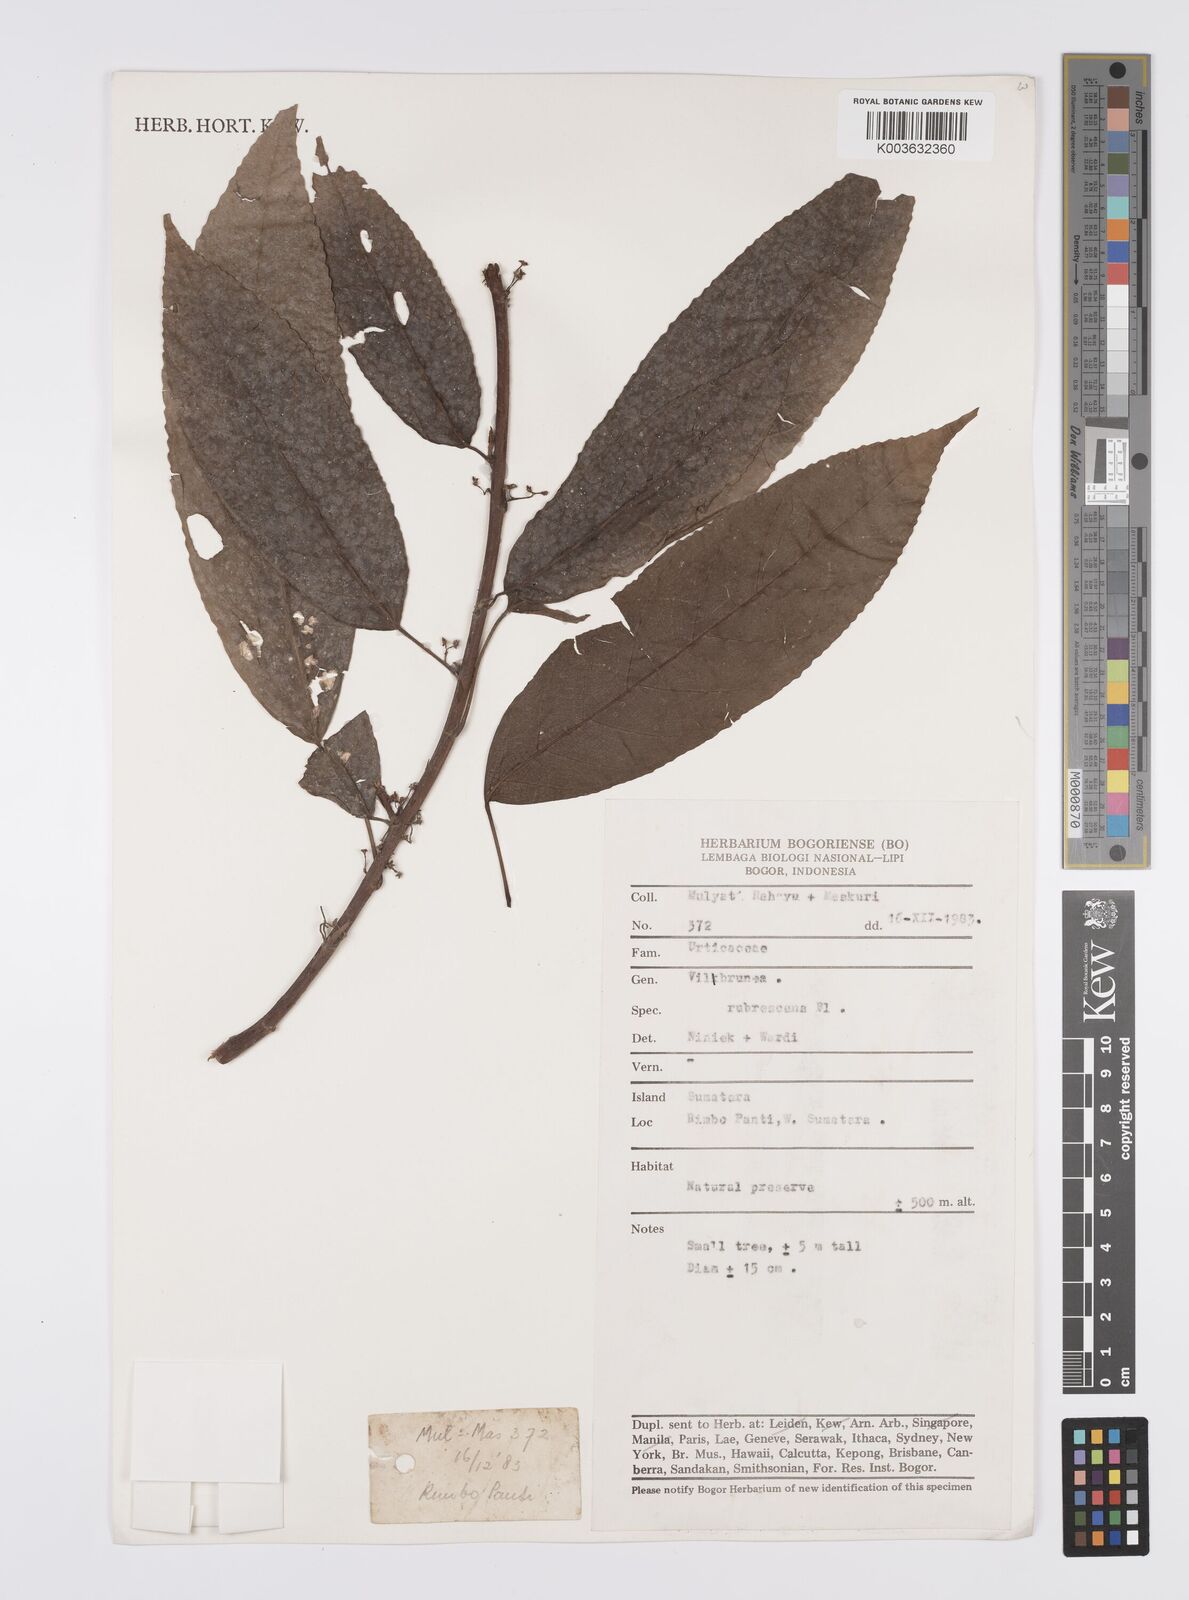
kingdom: Plantae
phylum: Tracheophyta
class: Magnoliopsida
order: Rosales
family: Urticaceae
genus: Oreocnide
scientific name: Oreocnide rubescens
